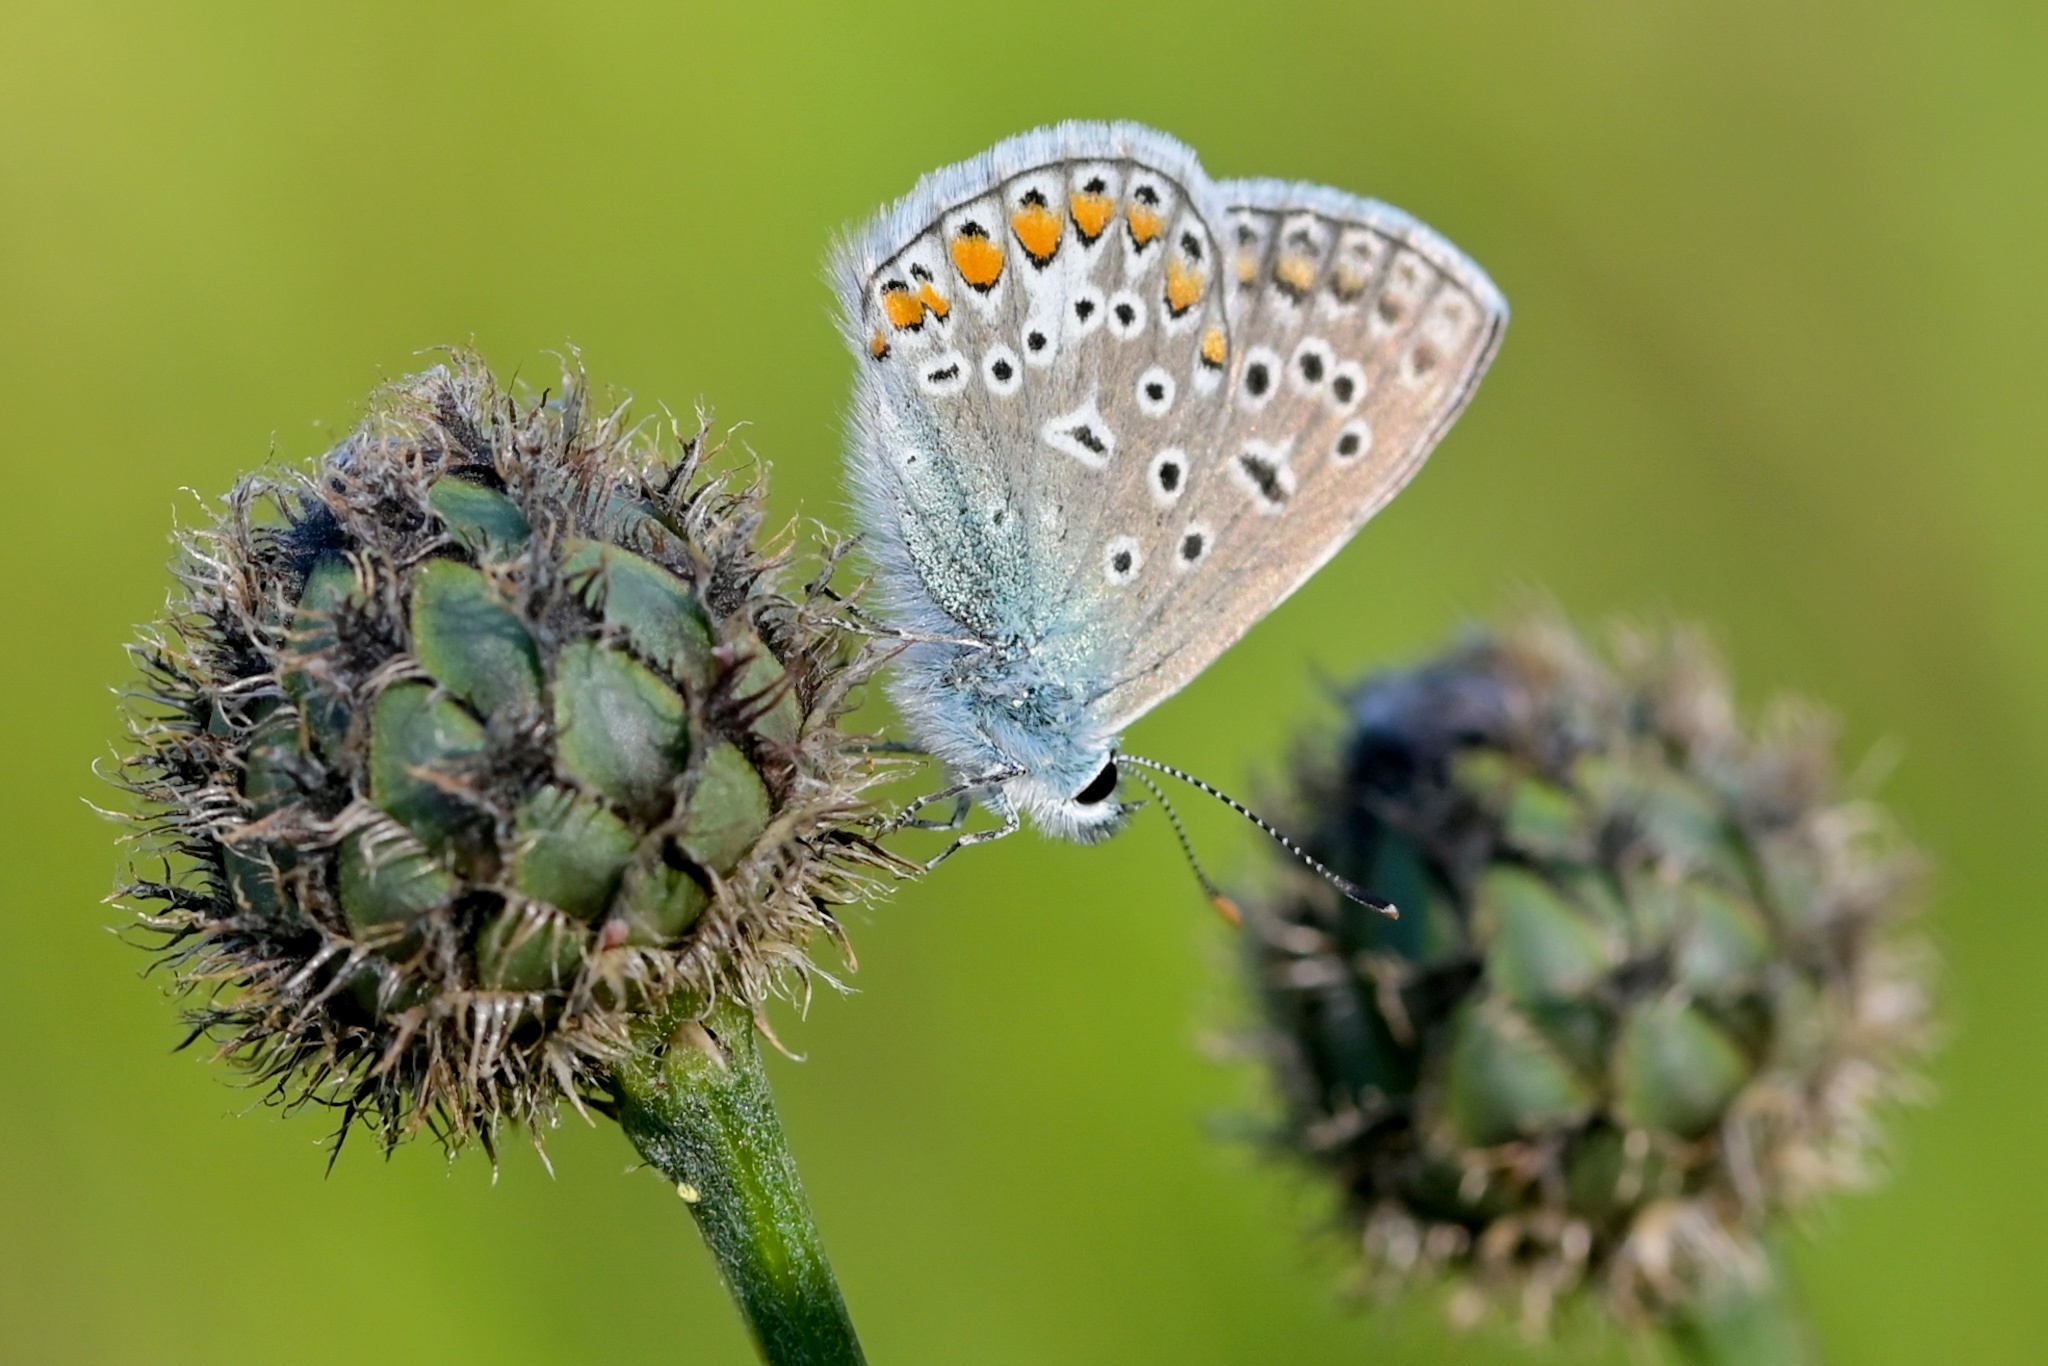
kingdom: Animalia
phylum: Arthropoda
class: Insecta
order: Lepidoptera
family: Lycaenidae
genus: Polyommatus
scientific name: Polyommatus icarus
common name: Common blue
